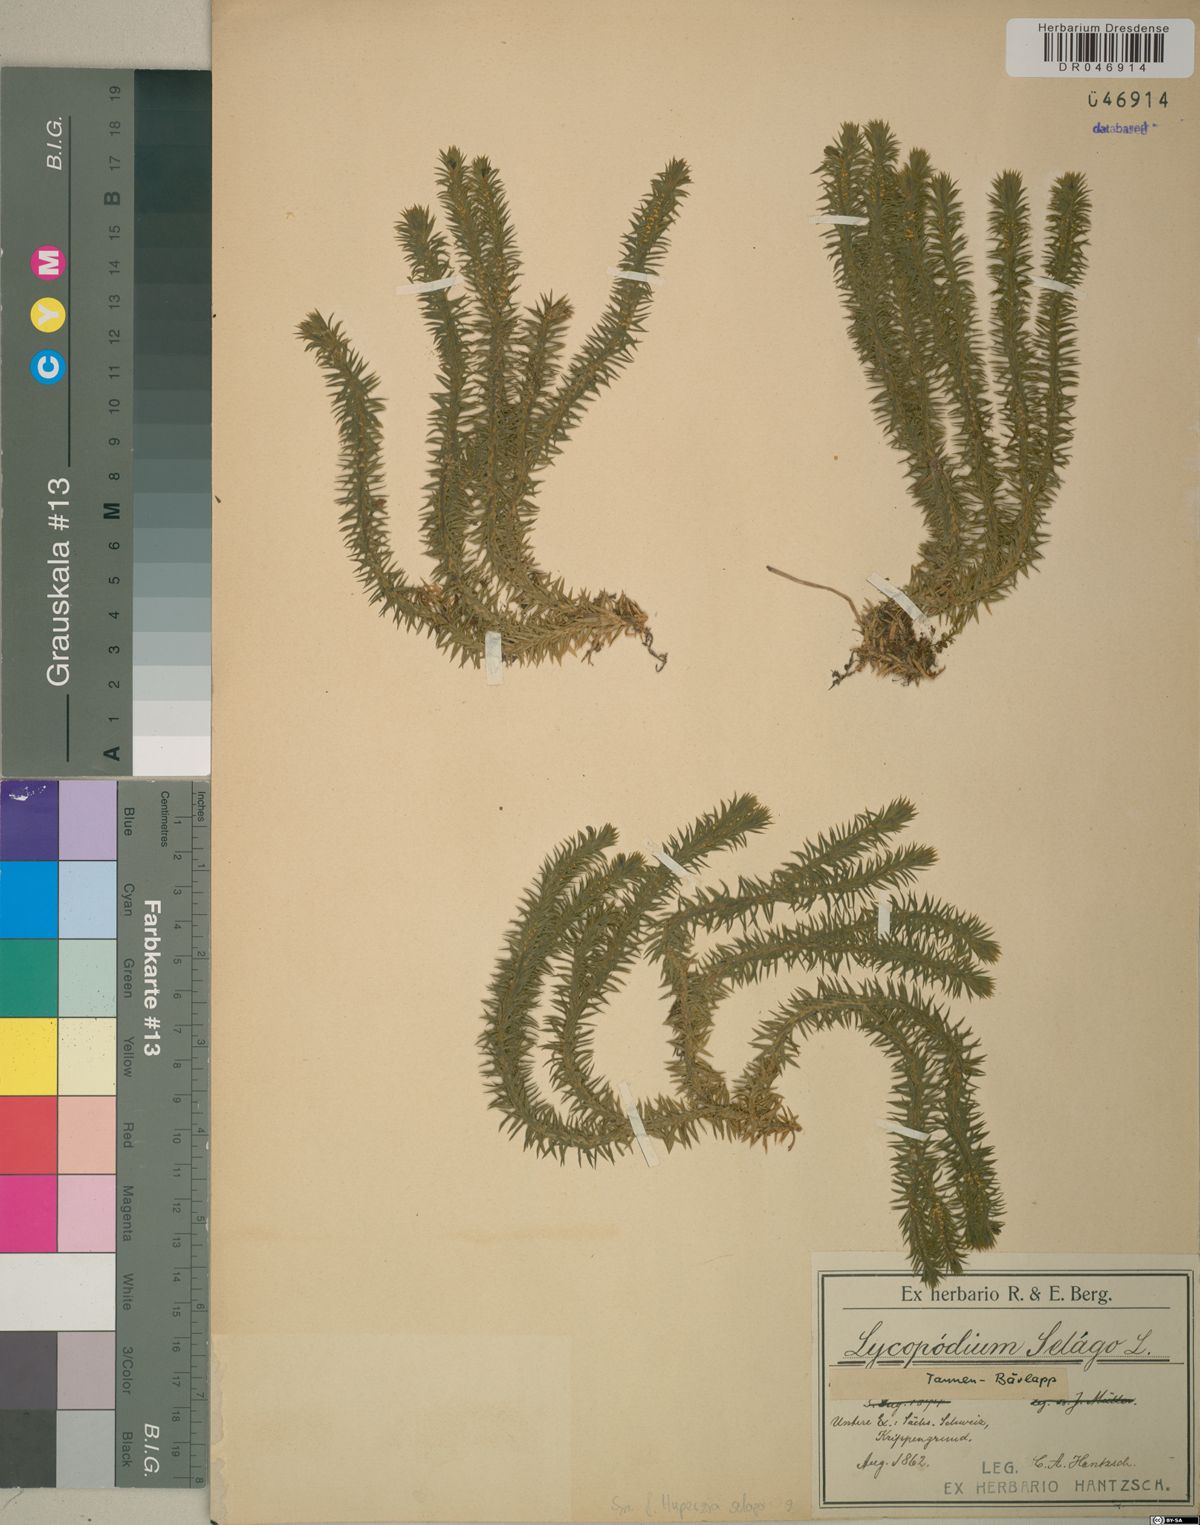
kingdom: Plantae
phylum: Tracheophyta
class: Lycopodiopsida
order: Lycopodiales
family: Lycopodiaceae
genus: Huperzia
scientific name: Huperzia selago
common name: Northern firmoss
